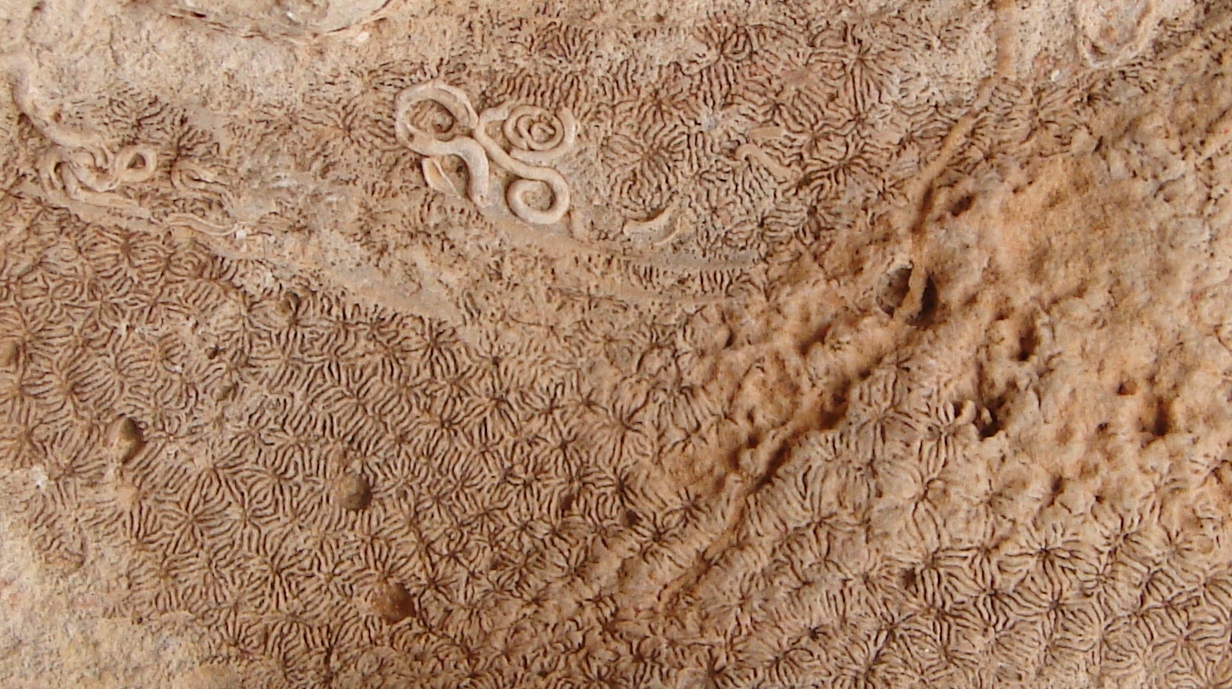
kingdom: Animalia
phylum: Cnidaria
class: Anthozoa
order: Scleractinia
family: Latomeandridae
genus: Periseris
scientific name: Periseris elegantula
